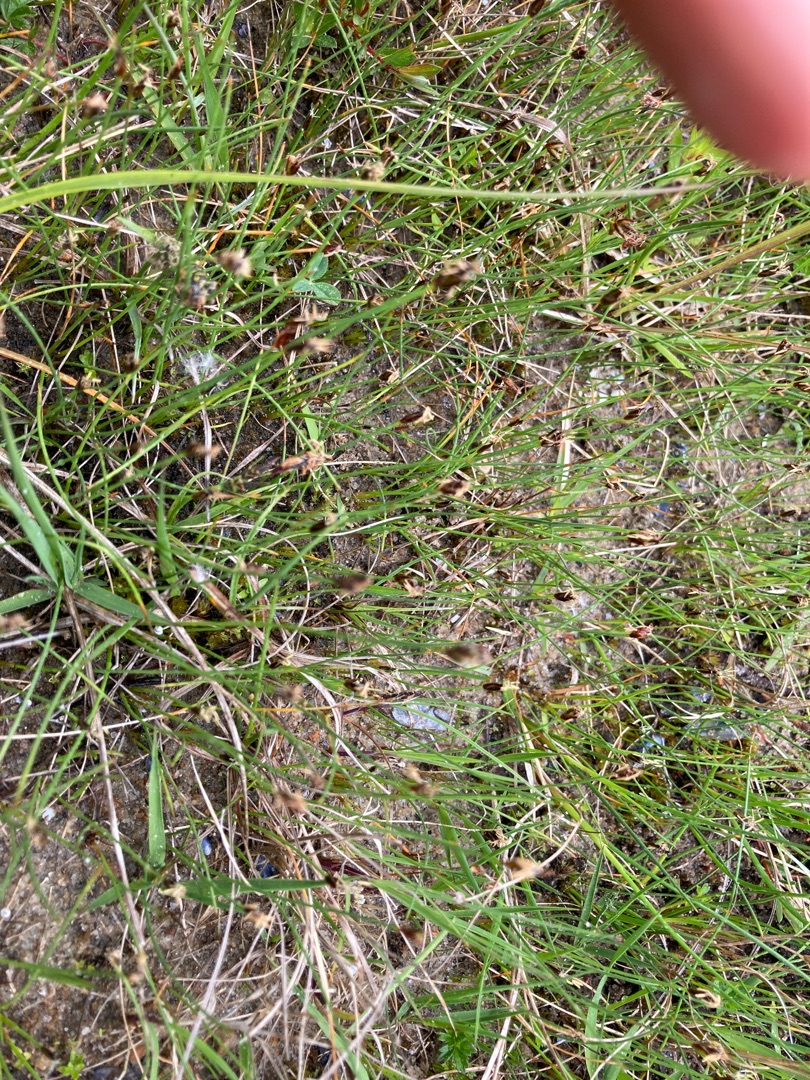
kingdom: Plantae
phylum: Tracheophyta
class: Liliopsida
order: Poales
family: Cyperaceae
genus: Eleocharis
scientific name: Eleocharis quinqueflora
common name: Fåblomstret kogleaks
